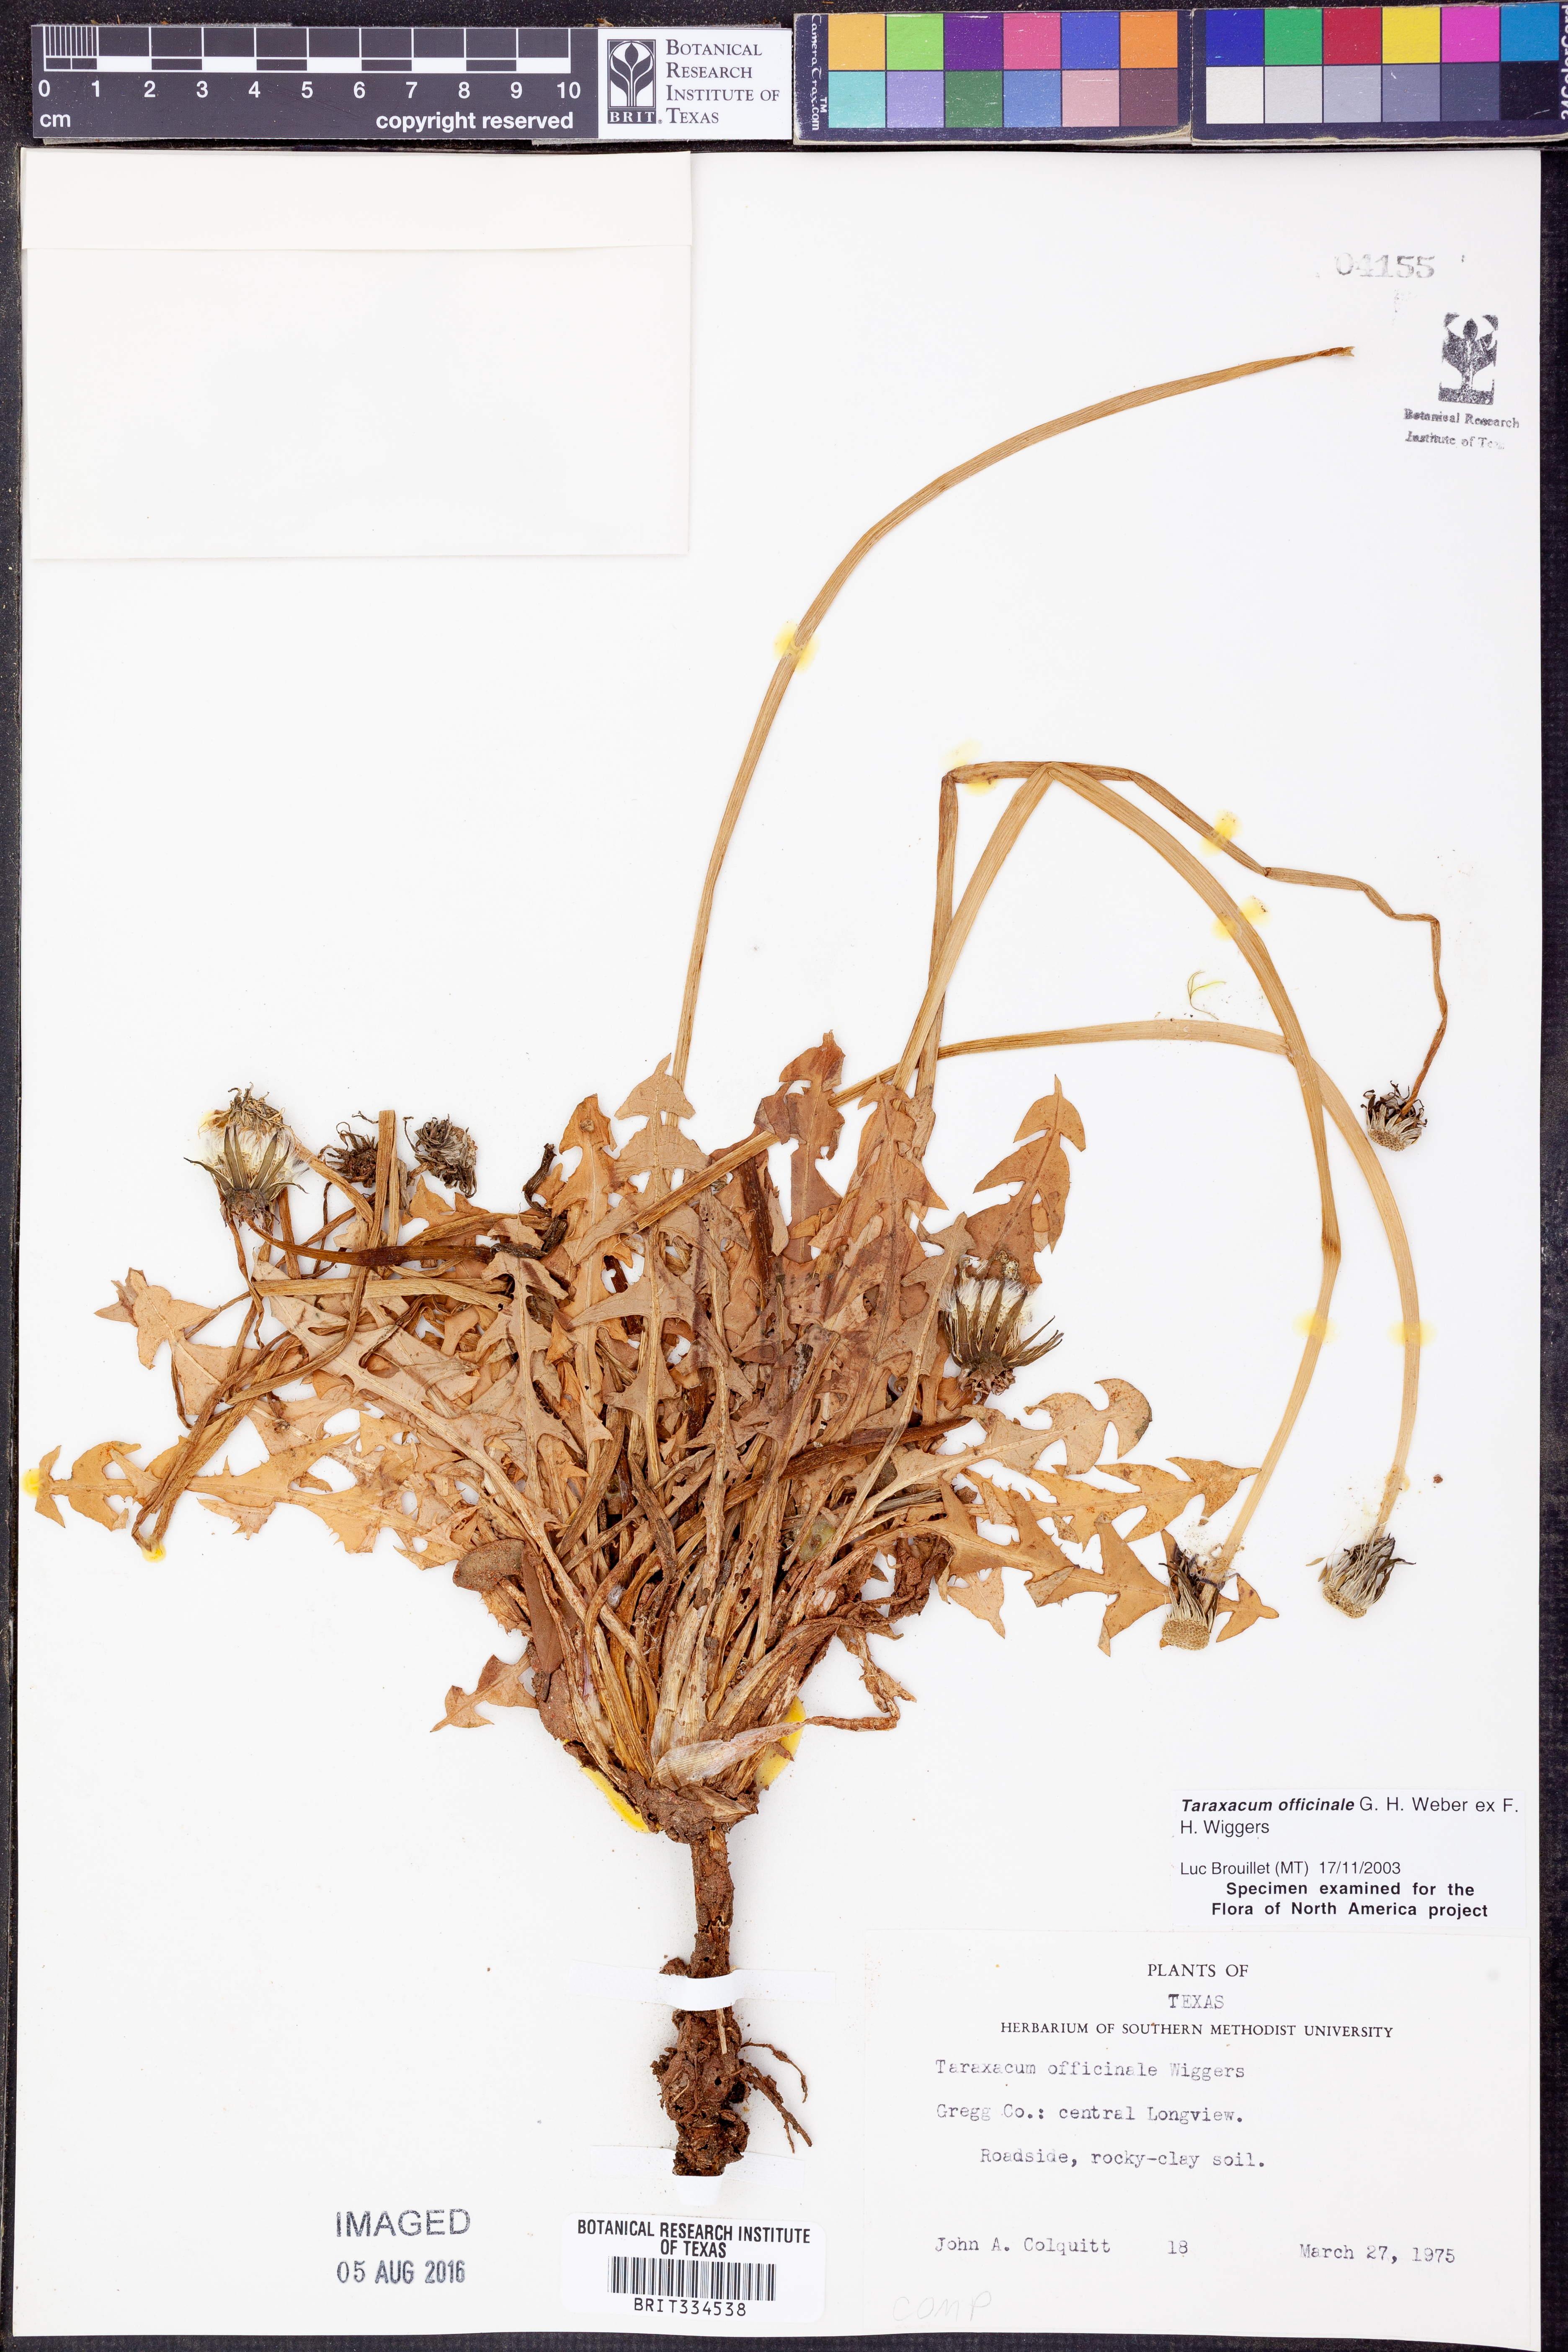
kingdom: Plantae
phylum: Tracheophyta
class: Magnoliopsida
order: Asterales
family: Asteraceae
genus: Taraxacum
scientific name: Taraxacum officinale
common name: Common dandelion
